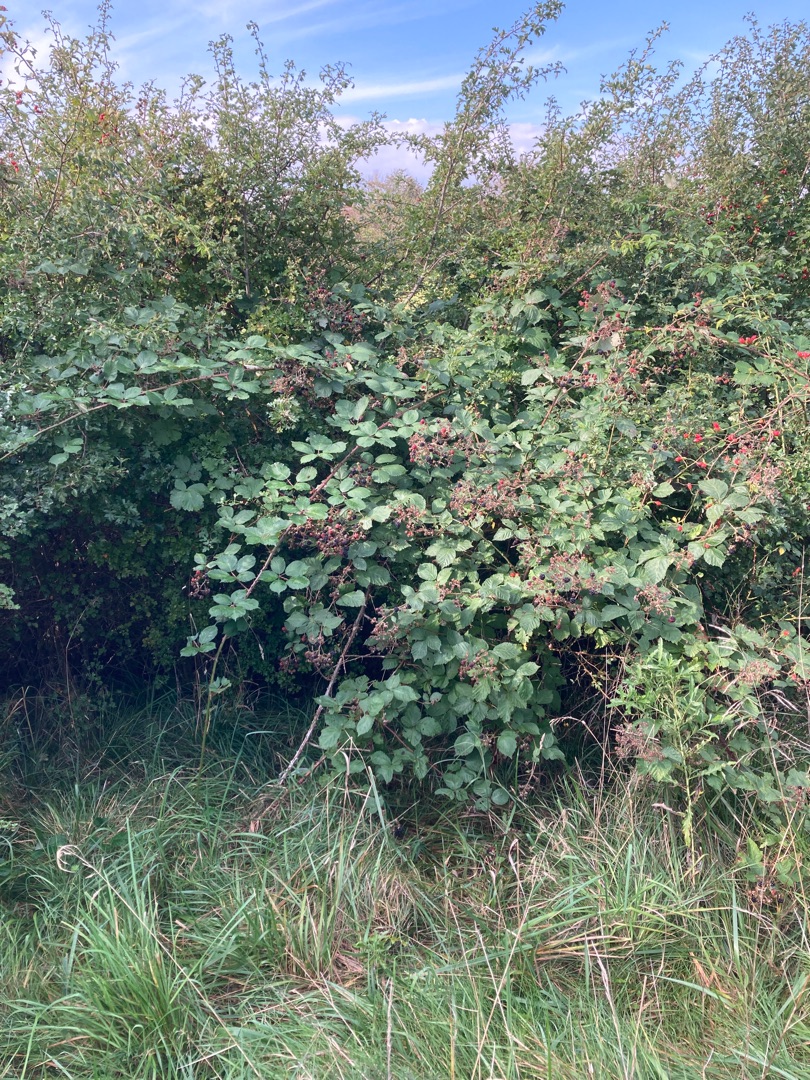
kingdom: Plantae
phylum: Tracheophyta
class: Magnoliopsida
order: Rosales
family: Rosaceae
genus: Rubus
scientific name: Rubus armeniacus
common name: Armensk brombær
